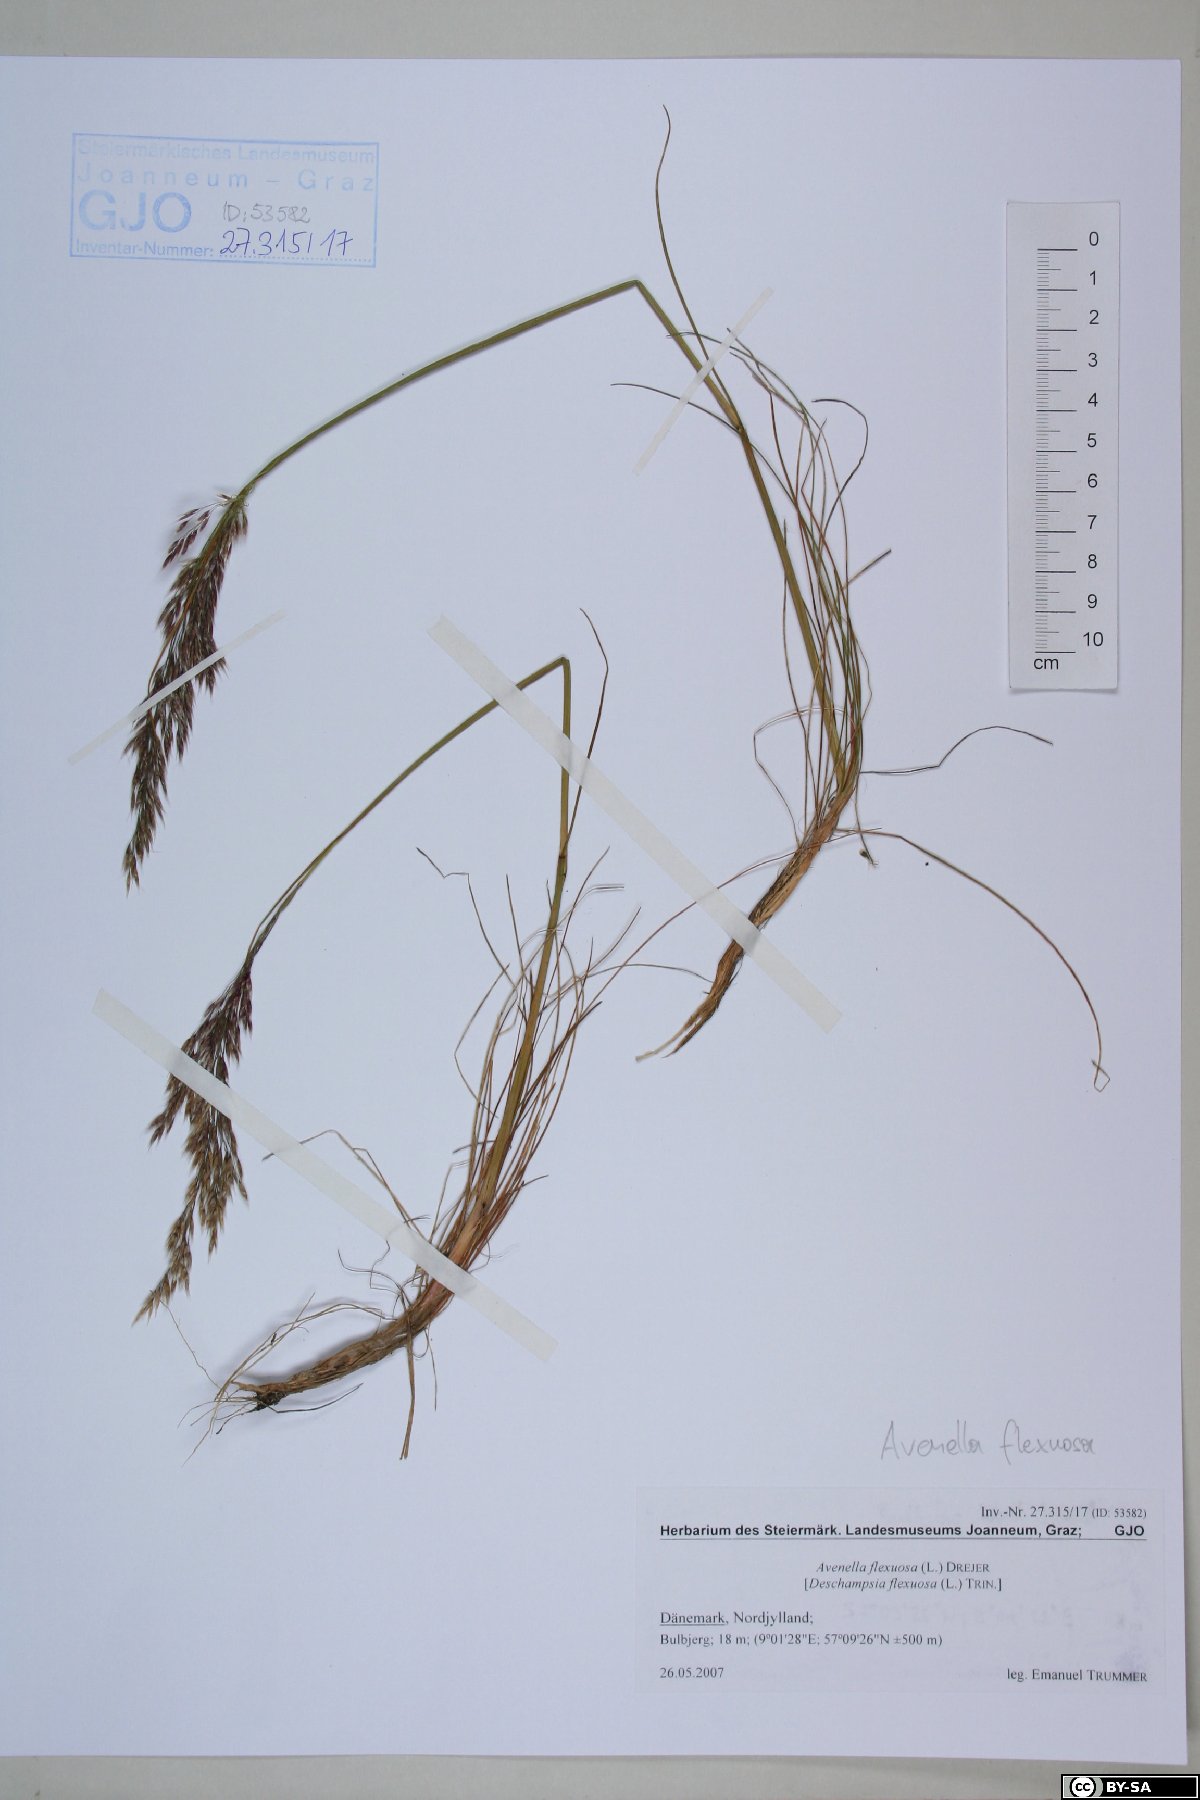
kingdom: Plantae
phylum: Tracheophyta
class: Liliopsida
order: Poales
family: Poaceae
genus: Avenella
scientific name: Avenella flexuosa
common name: Wavy hairgrass
